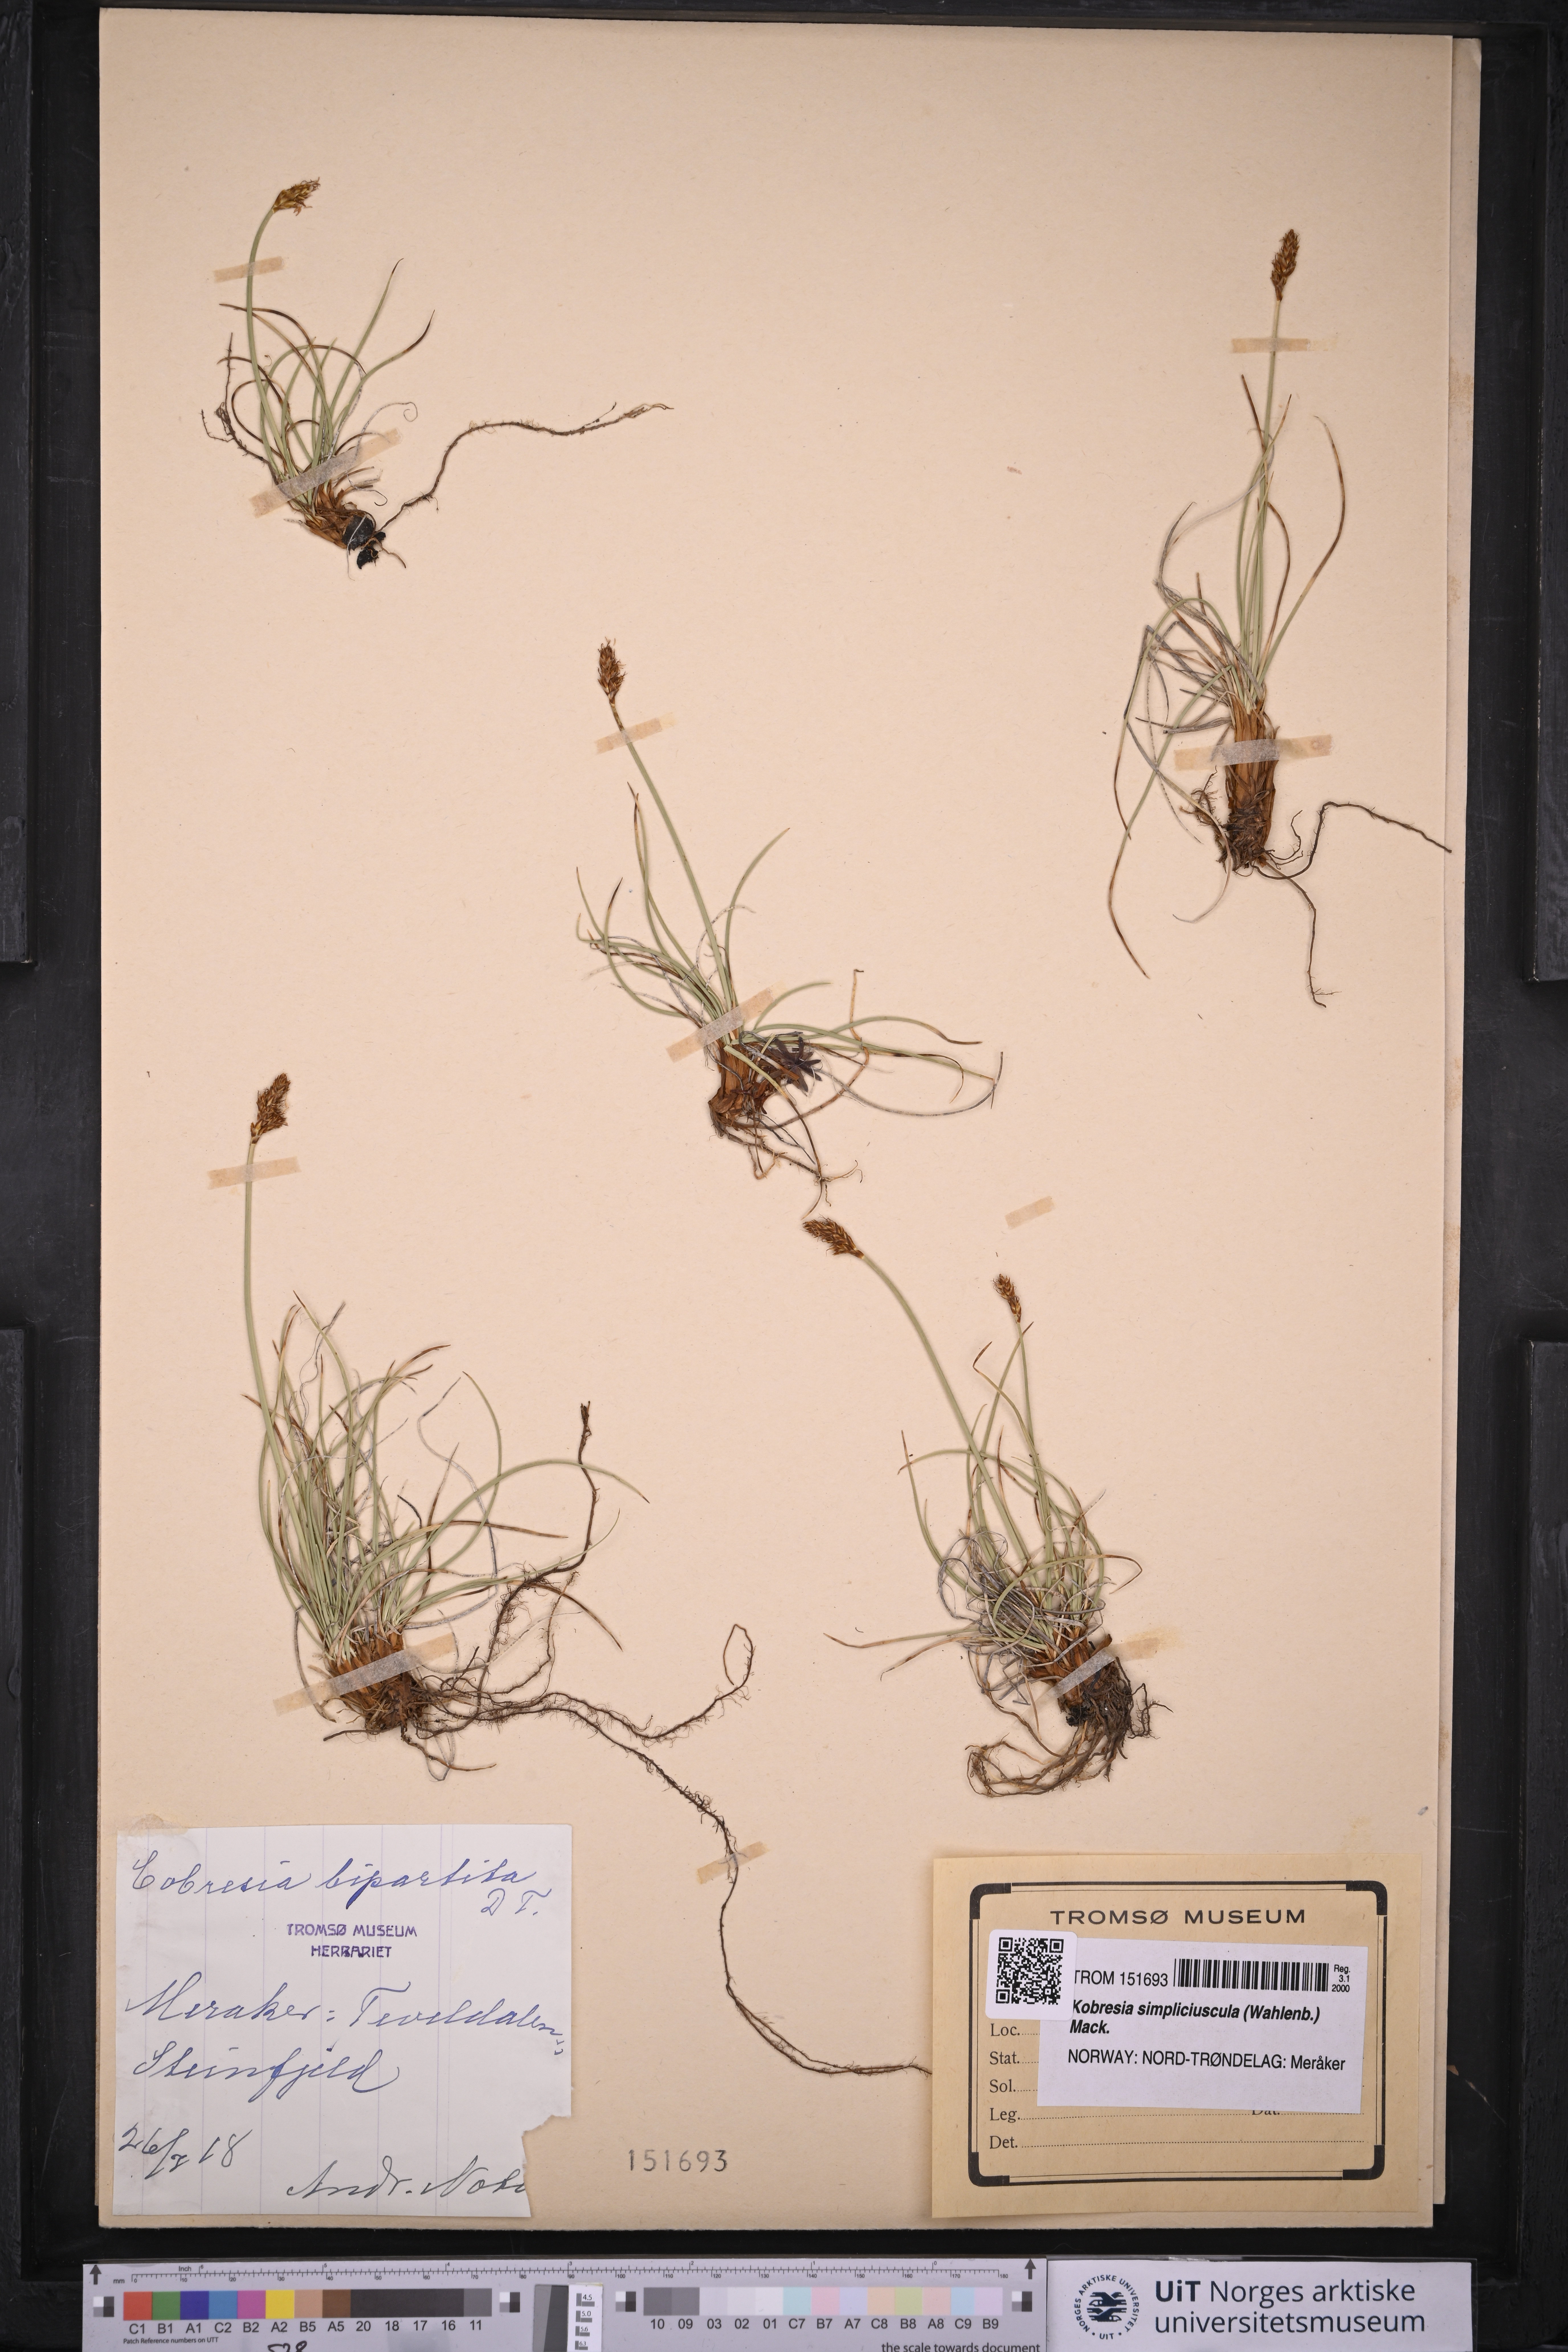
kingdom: Plantae
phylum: Tracheophyta
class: Liliopsida
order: Poales
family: Cyperaceae
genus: Carex
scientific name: Carex simpliciuscula
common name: Simple bog sedge
